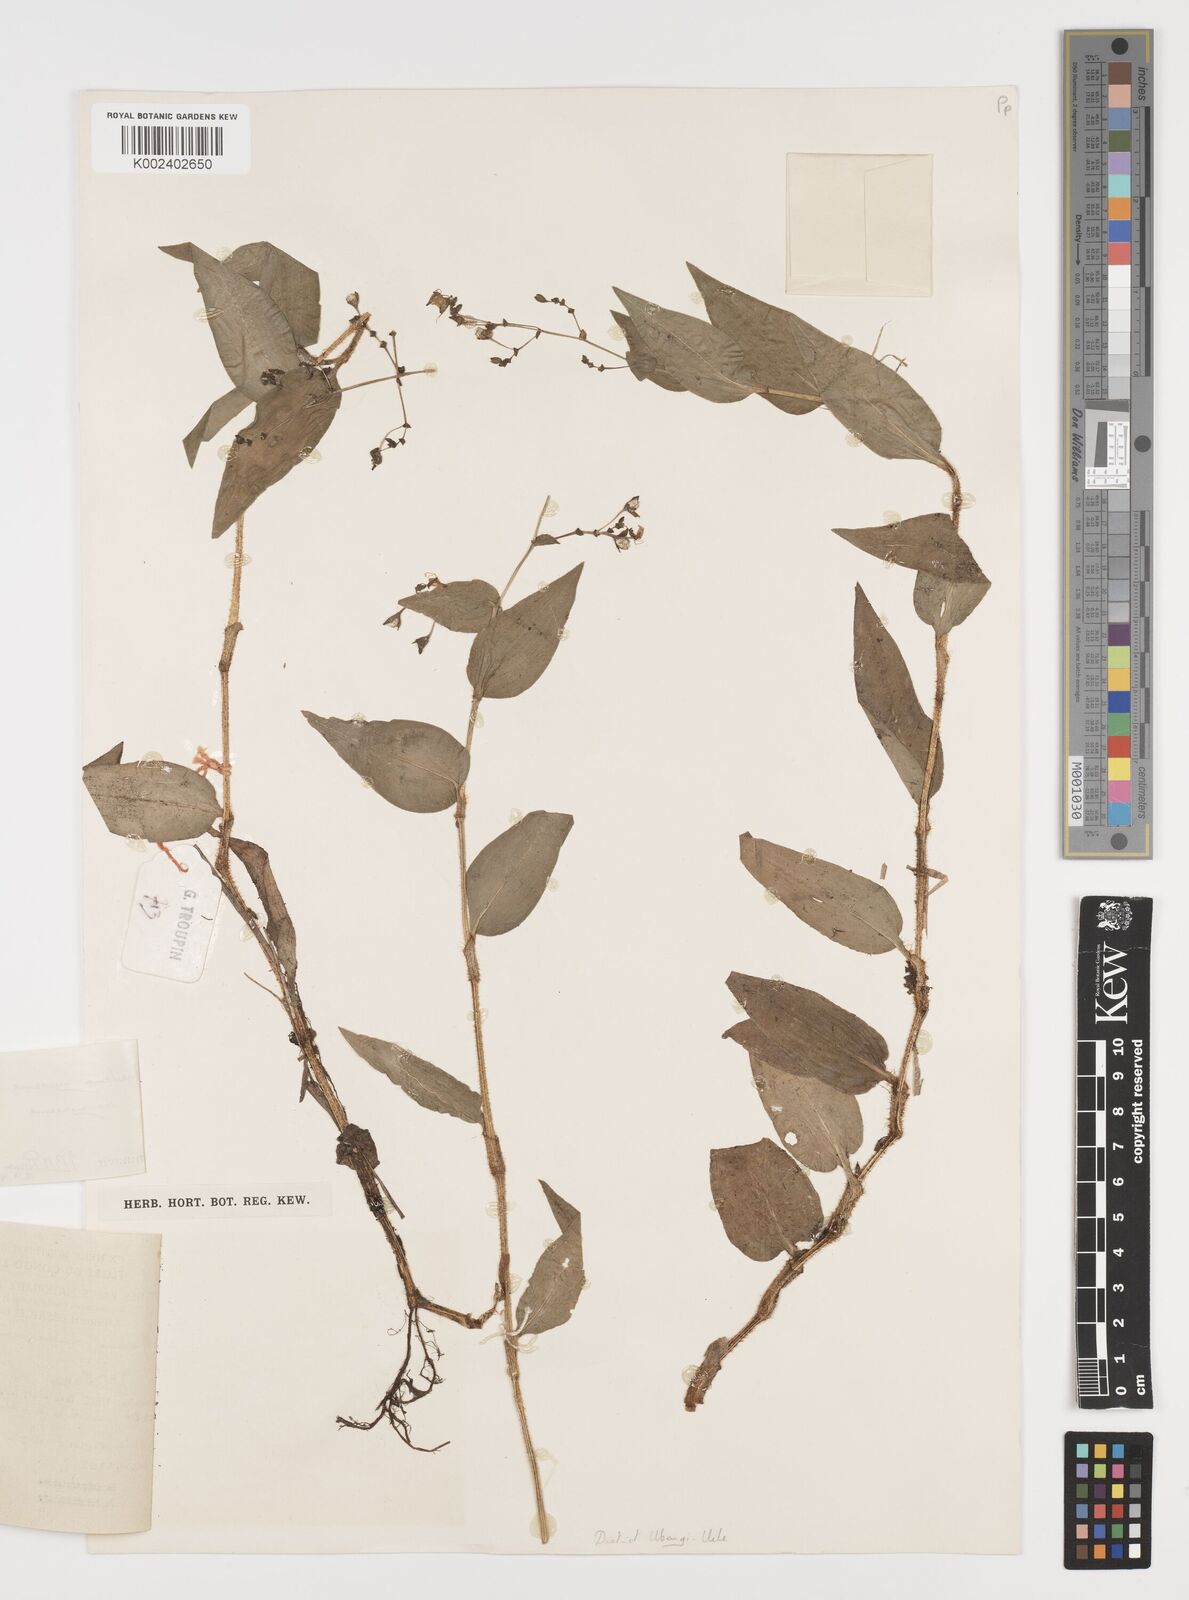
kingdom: Plantae
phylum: Tracheophyta
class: Liliopsida
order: Commelinales
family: Commelinaceae
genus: Aneilema
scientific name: Aneilema nyasense
